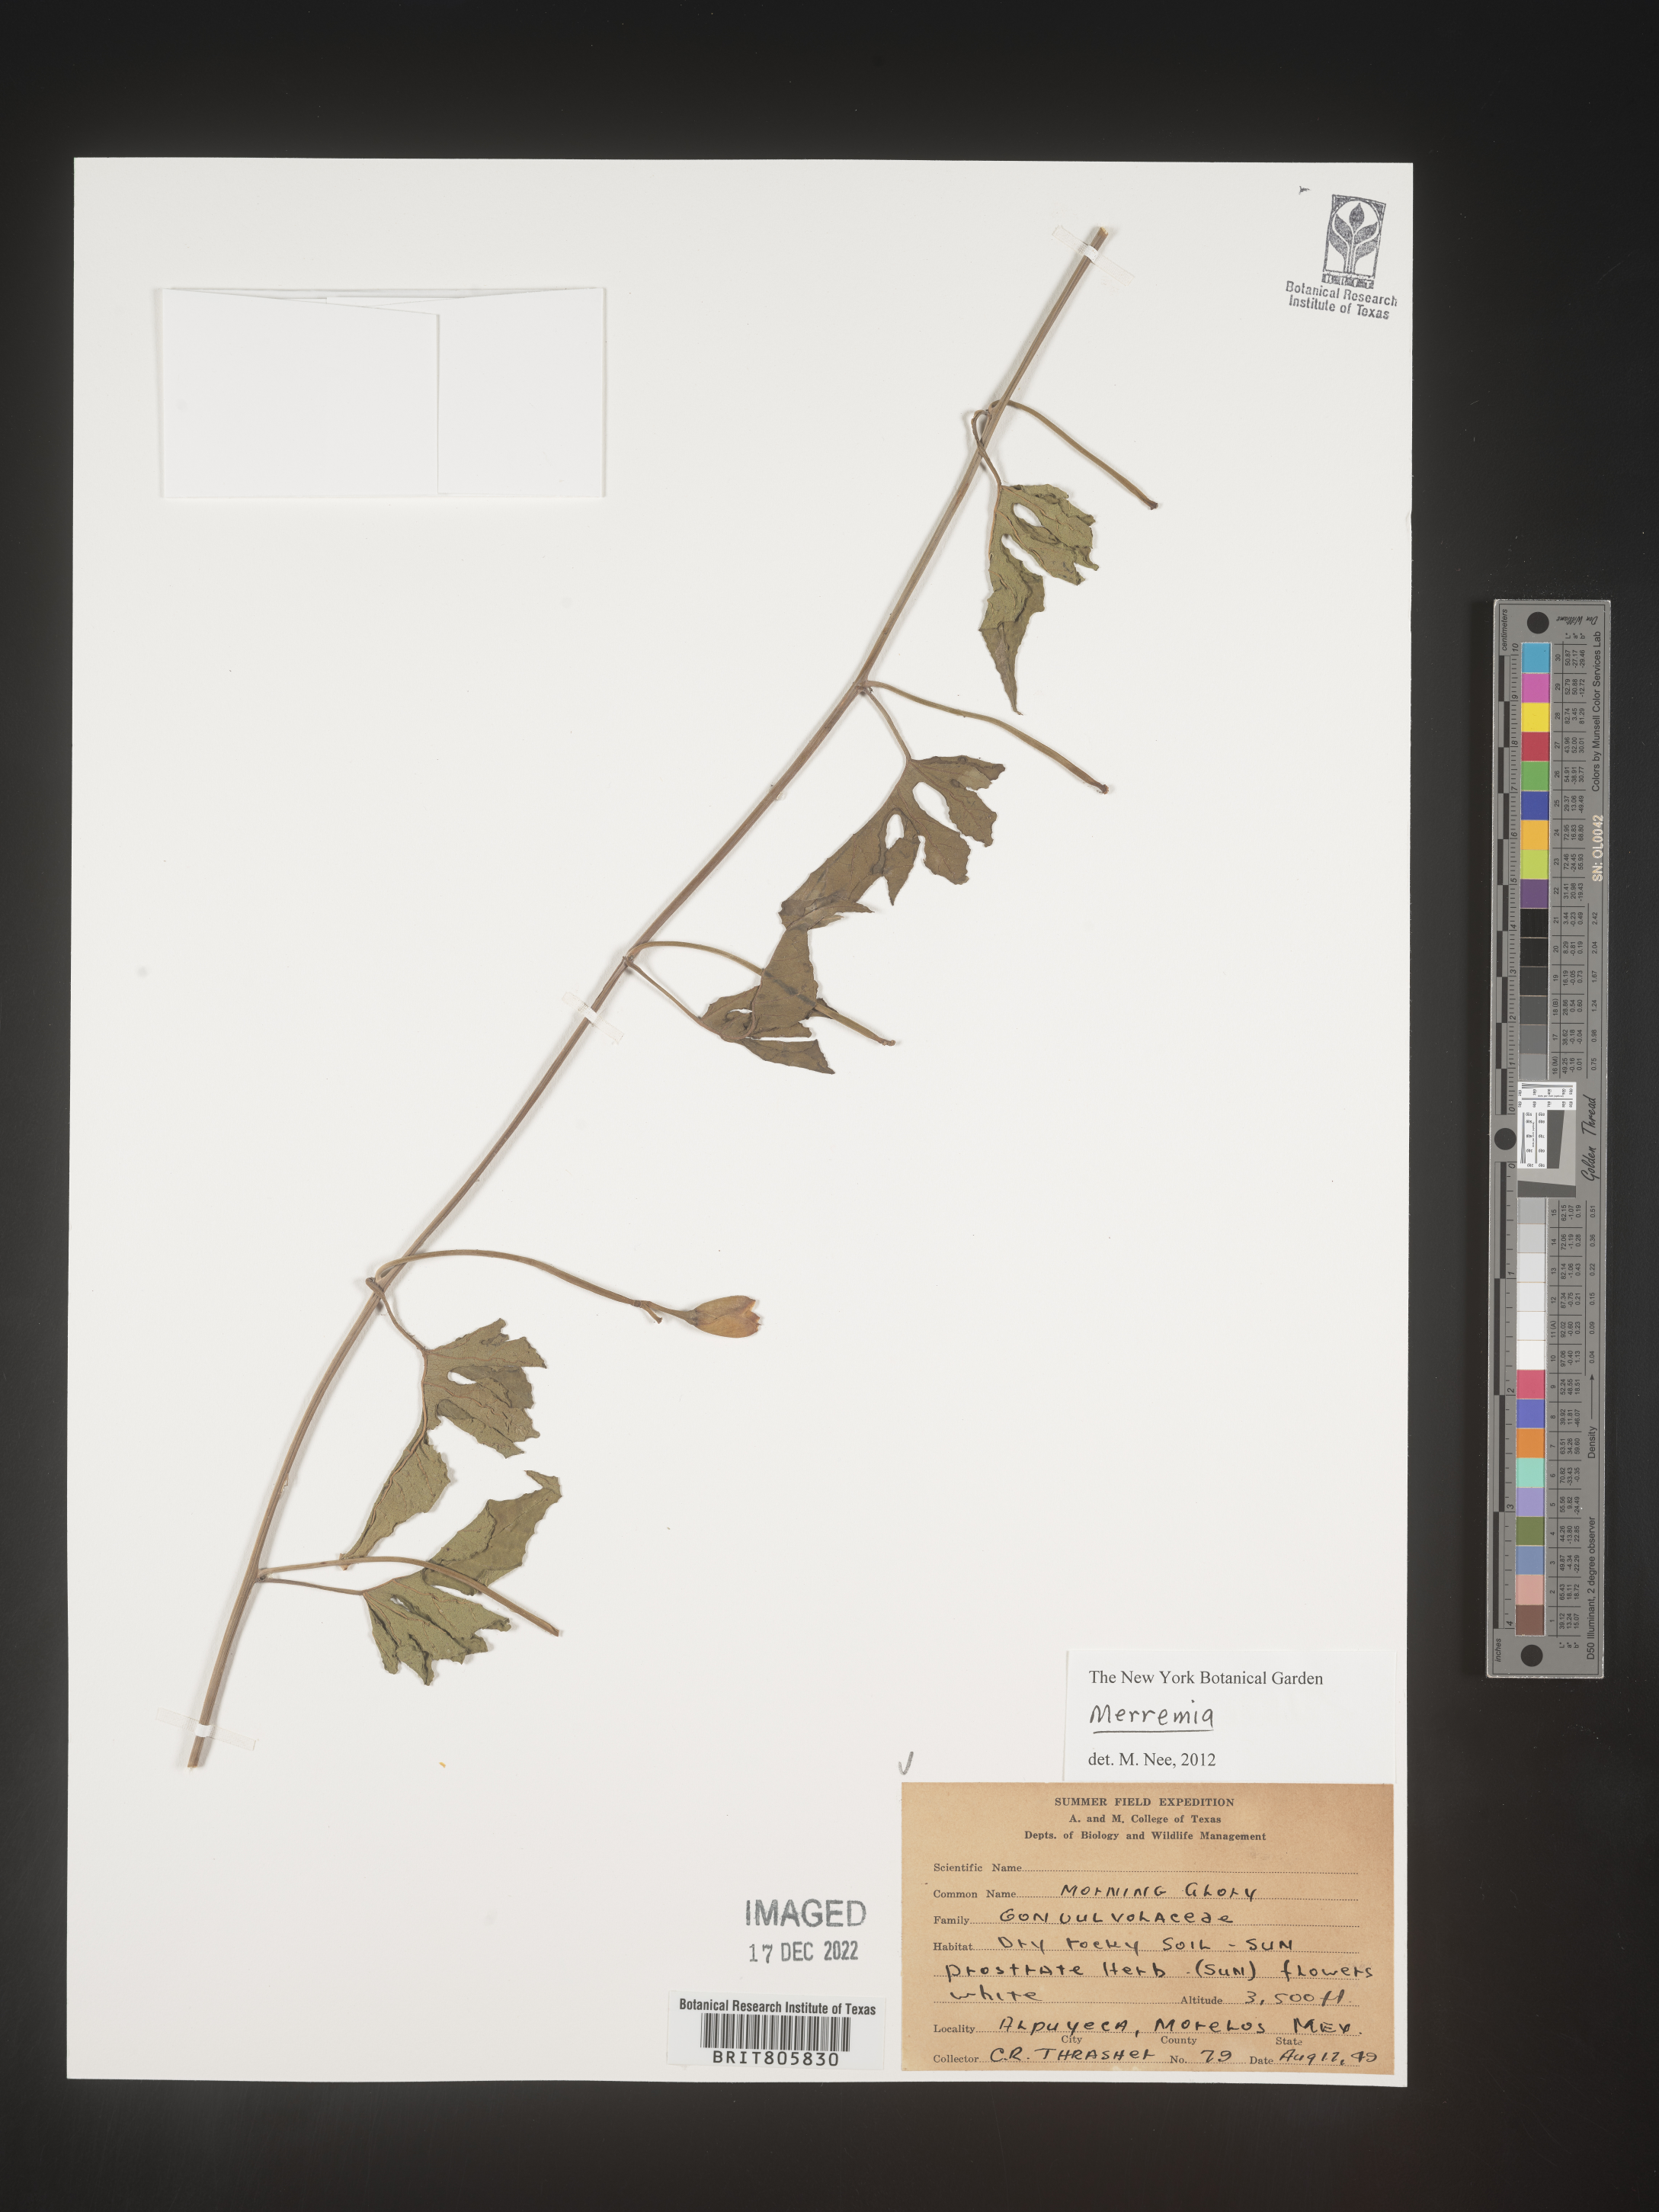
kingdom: Plantae
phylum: Tracheophyta
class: Magnoliopsida
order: Solanales
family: Convolvulaceae
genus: Merremia
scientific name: Merremia
